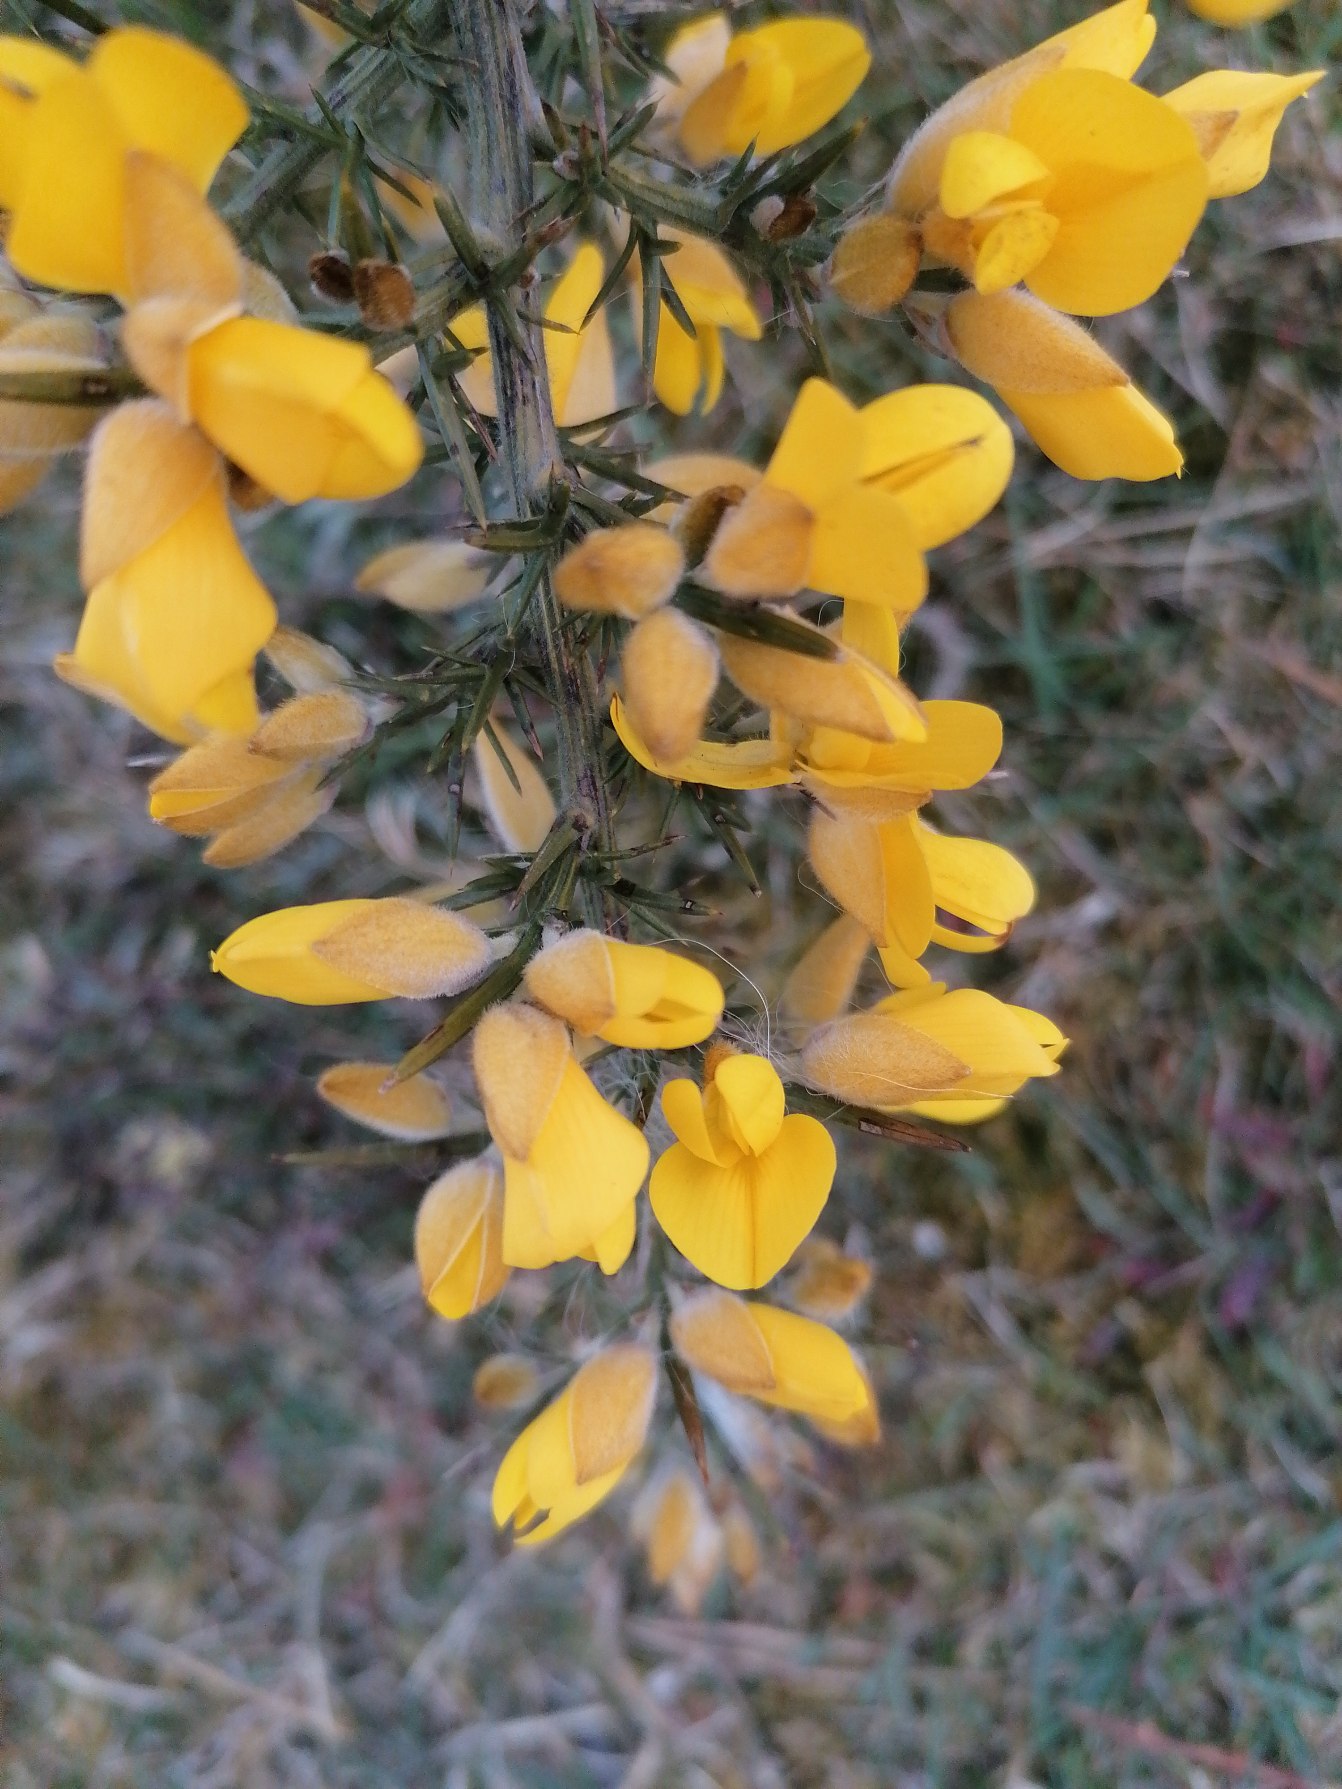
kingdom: Plantae
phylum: Tracheophyta
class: Magnoliopsida
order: Fabales
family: Fabaceae
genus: Ulex
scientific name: Ulex europaeus
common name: Tornblad
